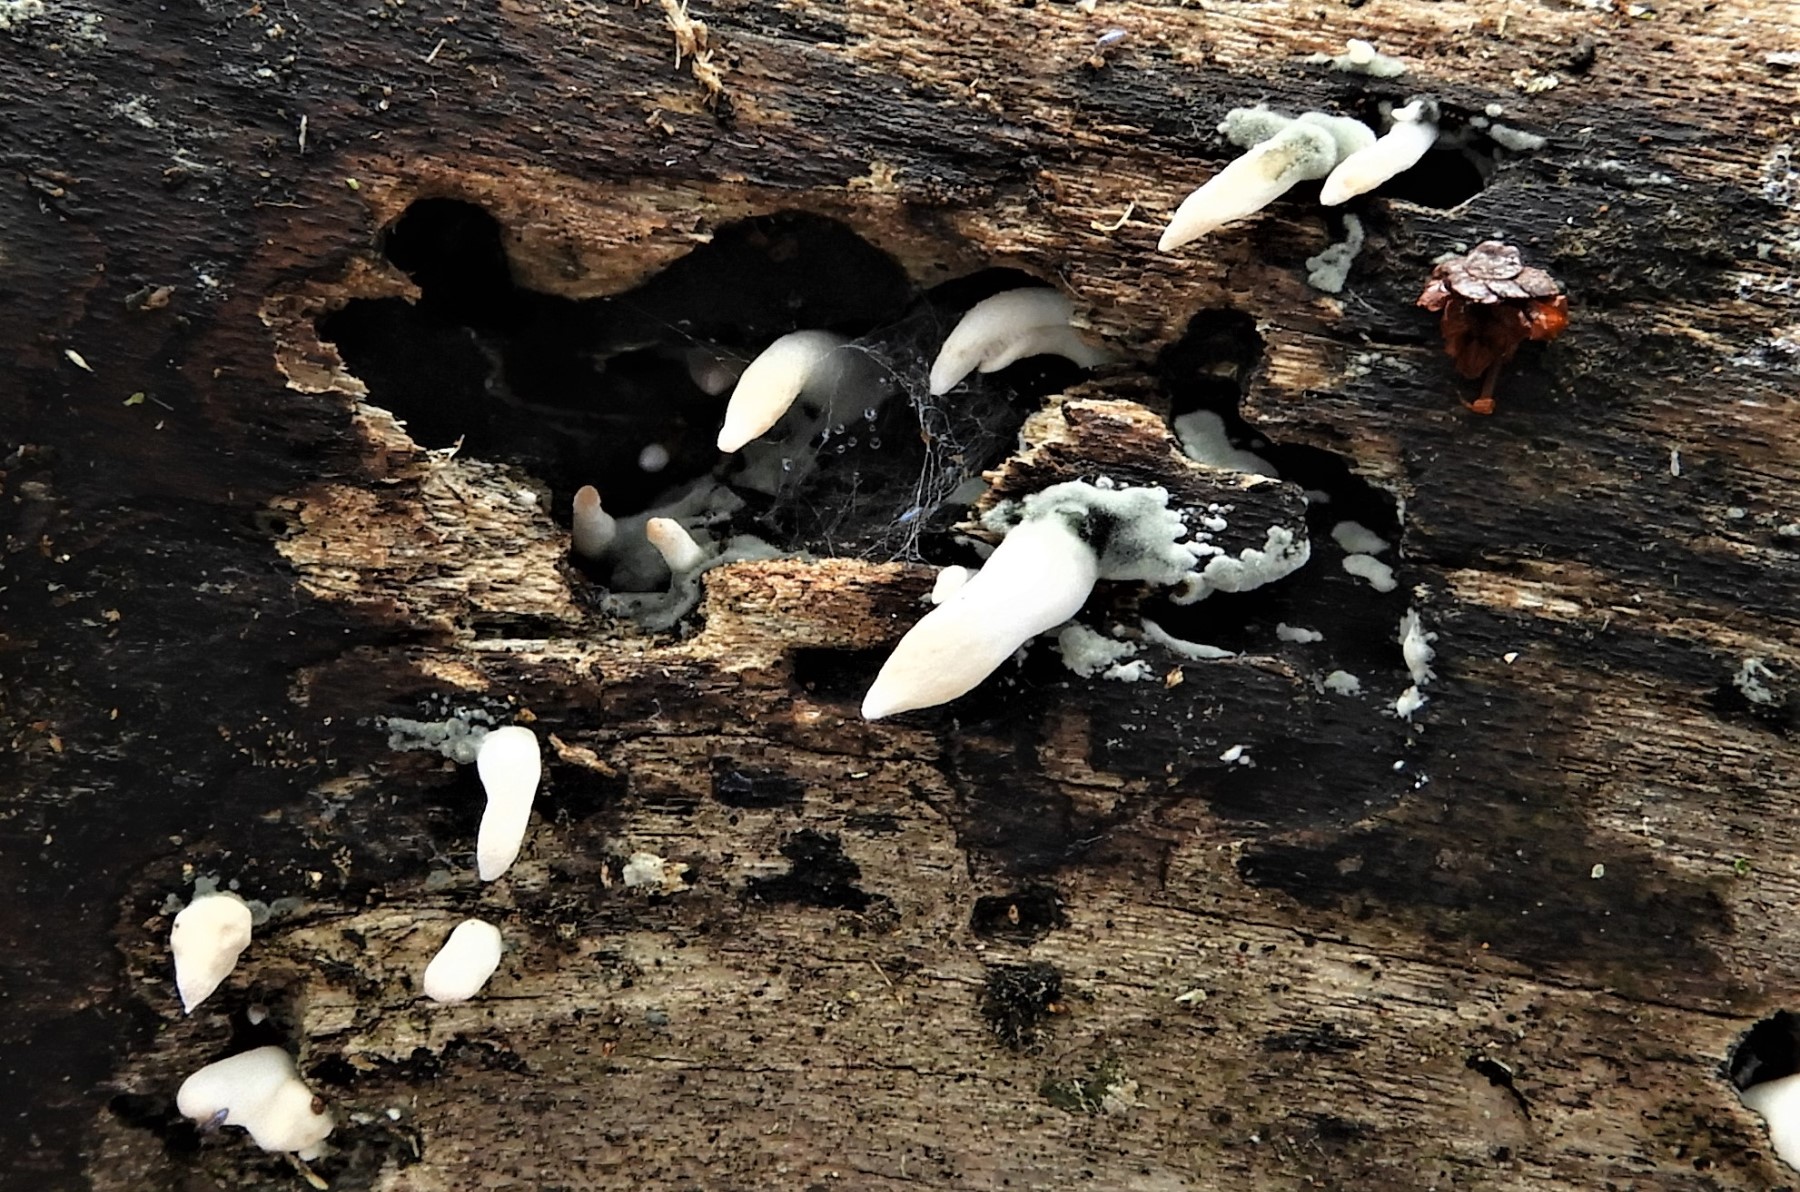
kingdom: Fungi
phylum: Ascomycota
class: Sordariomycetes
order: Xylariales
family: Xylariaceae
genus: Xylaria
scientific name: Xylaria
